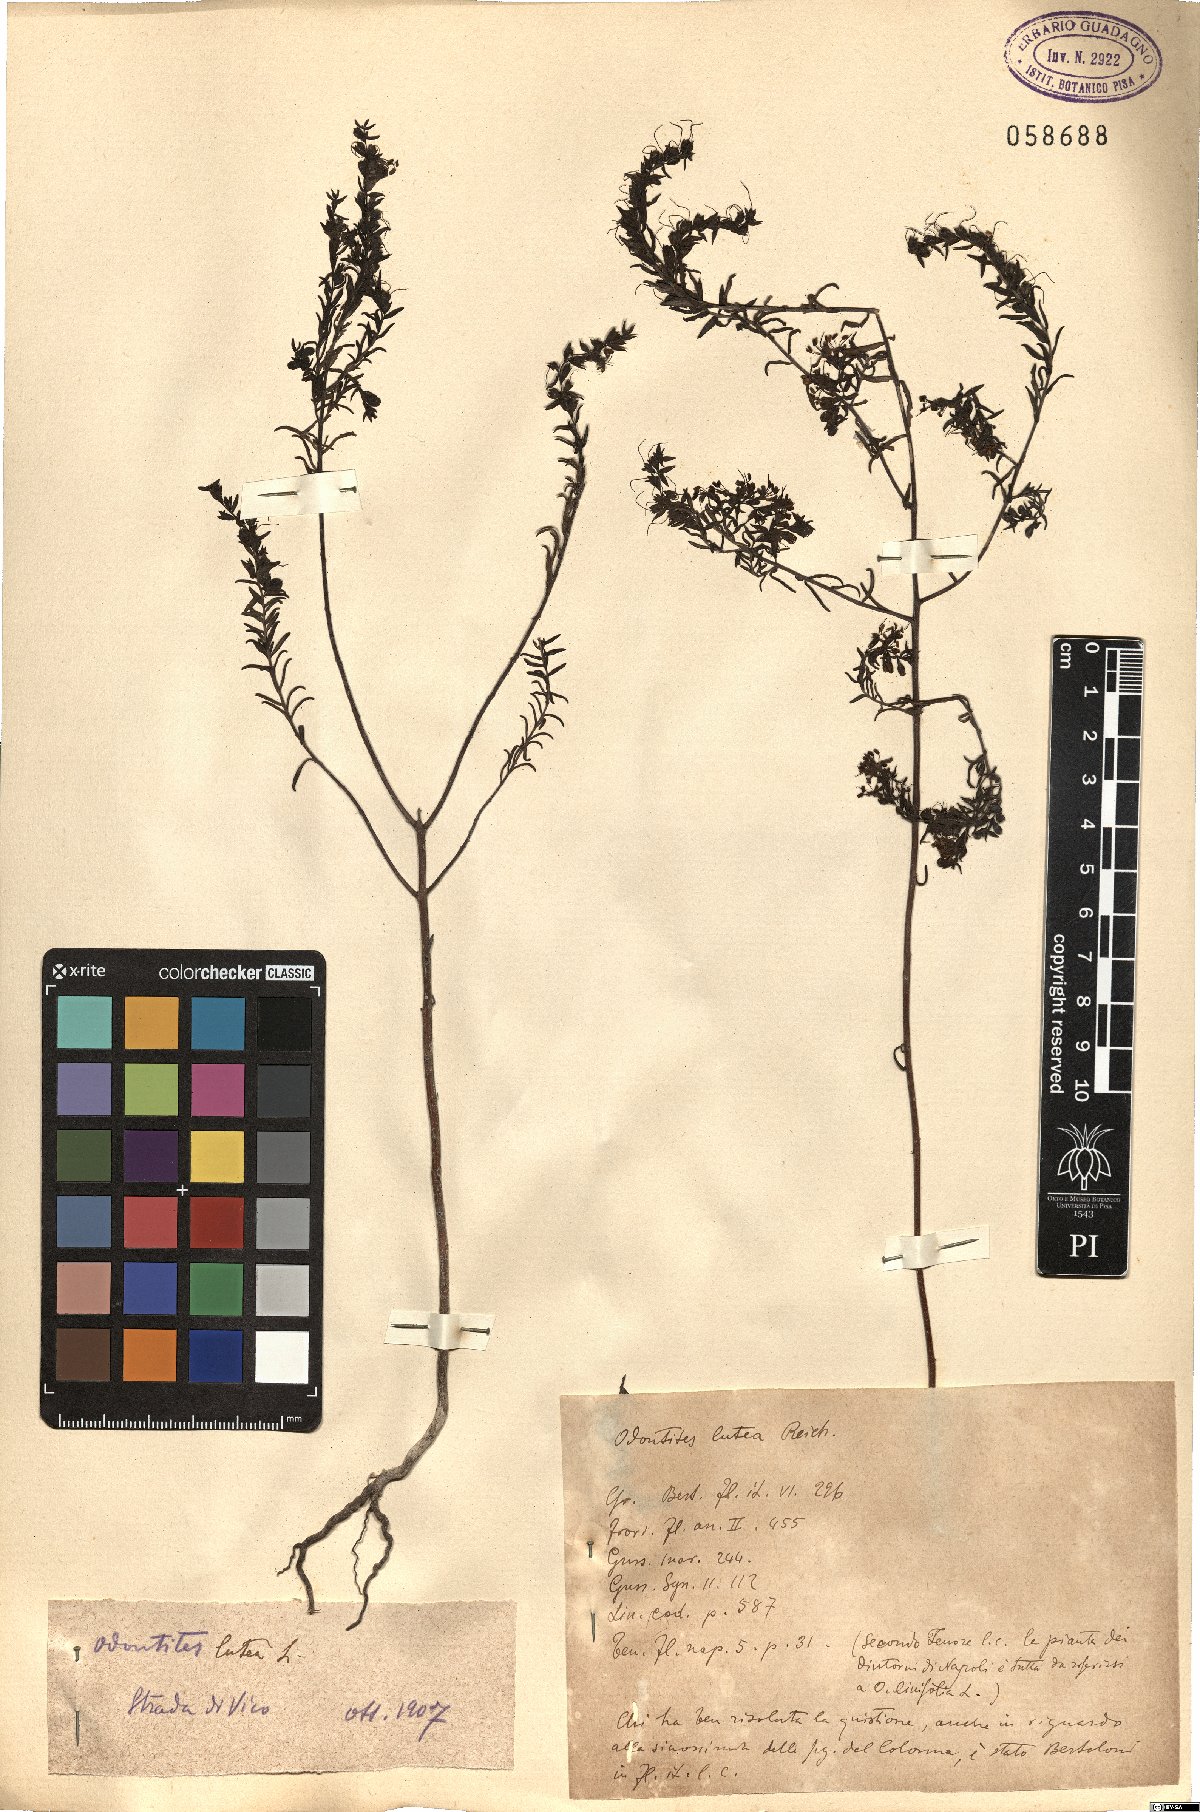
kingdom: Plantae
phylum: Tracheophyta
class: Magnoliopsida
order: Lamiales
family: Orobanchaceae
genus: Odontites
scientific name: Odontites luteus
